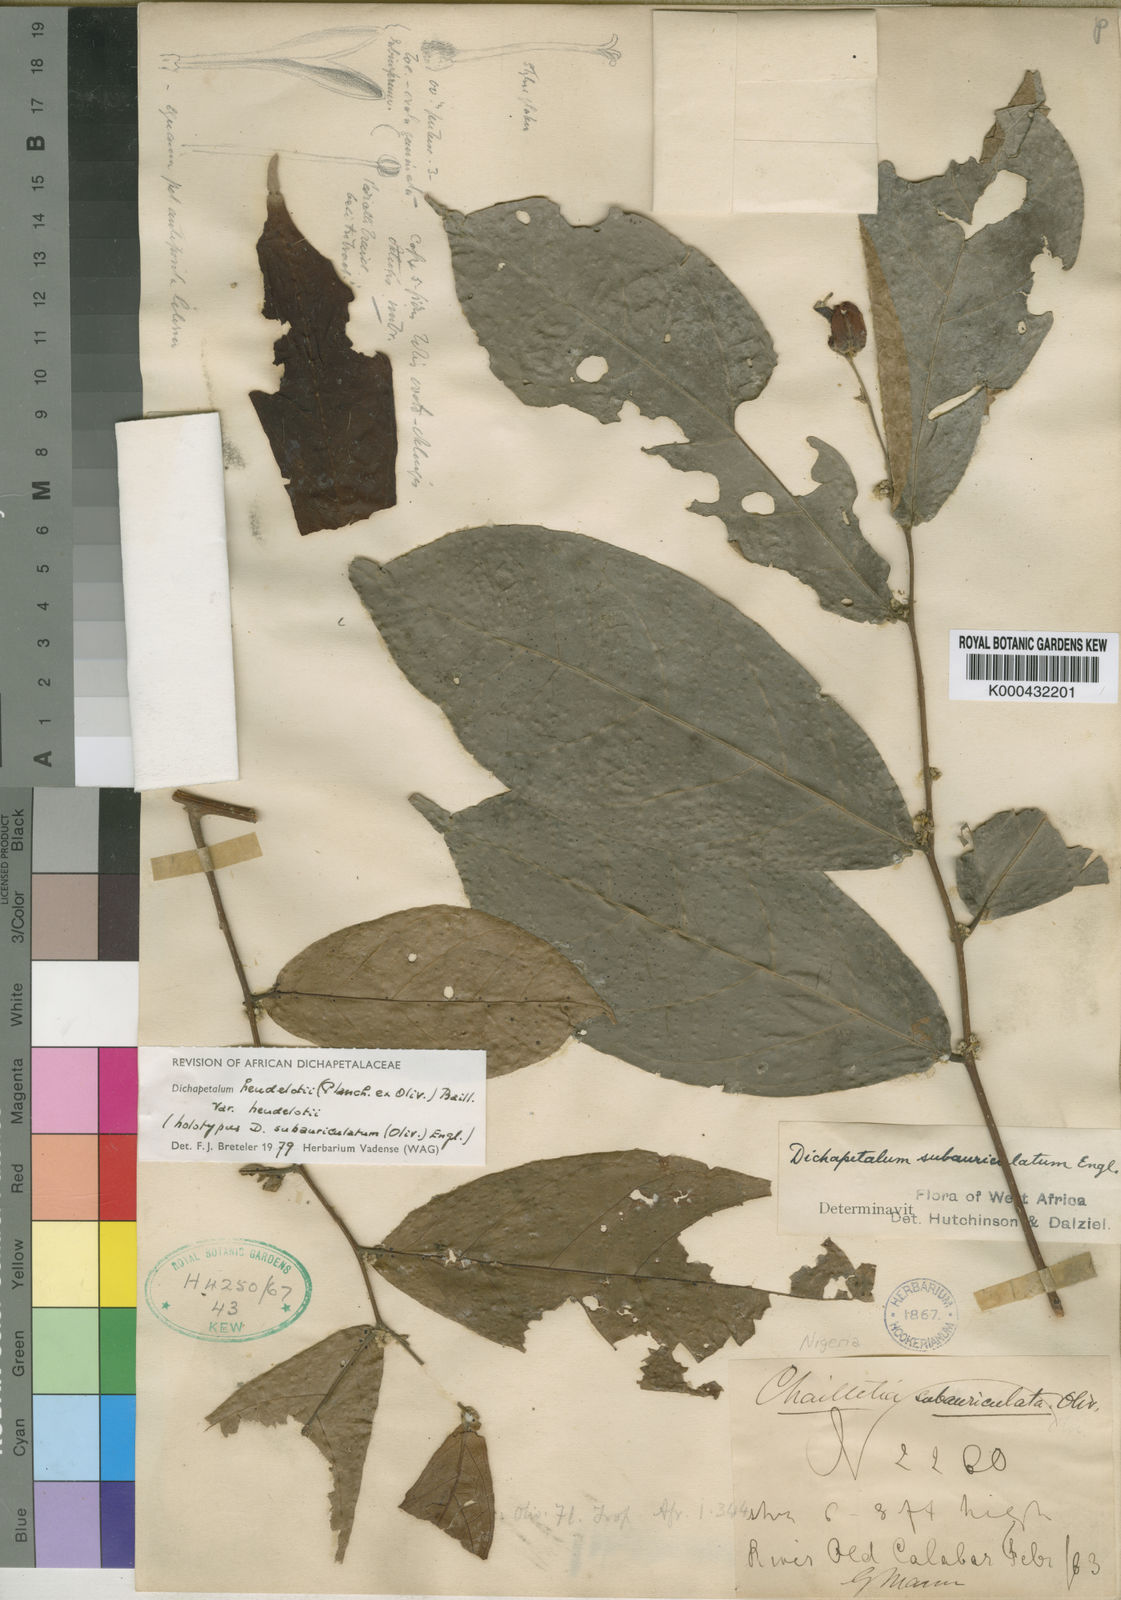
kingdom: Plantae
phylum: Tracheophyta
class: Magnoliopsida
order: Malpighiales
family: Dichapetalaceae
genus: Dichapetalum
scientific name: Dichapetalum heudelotii
